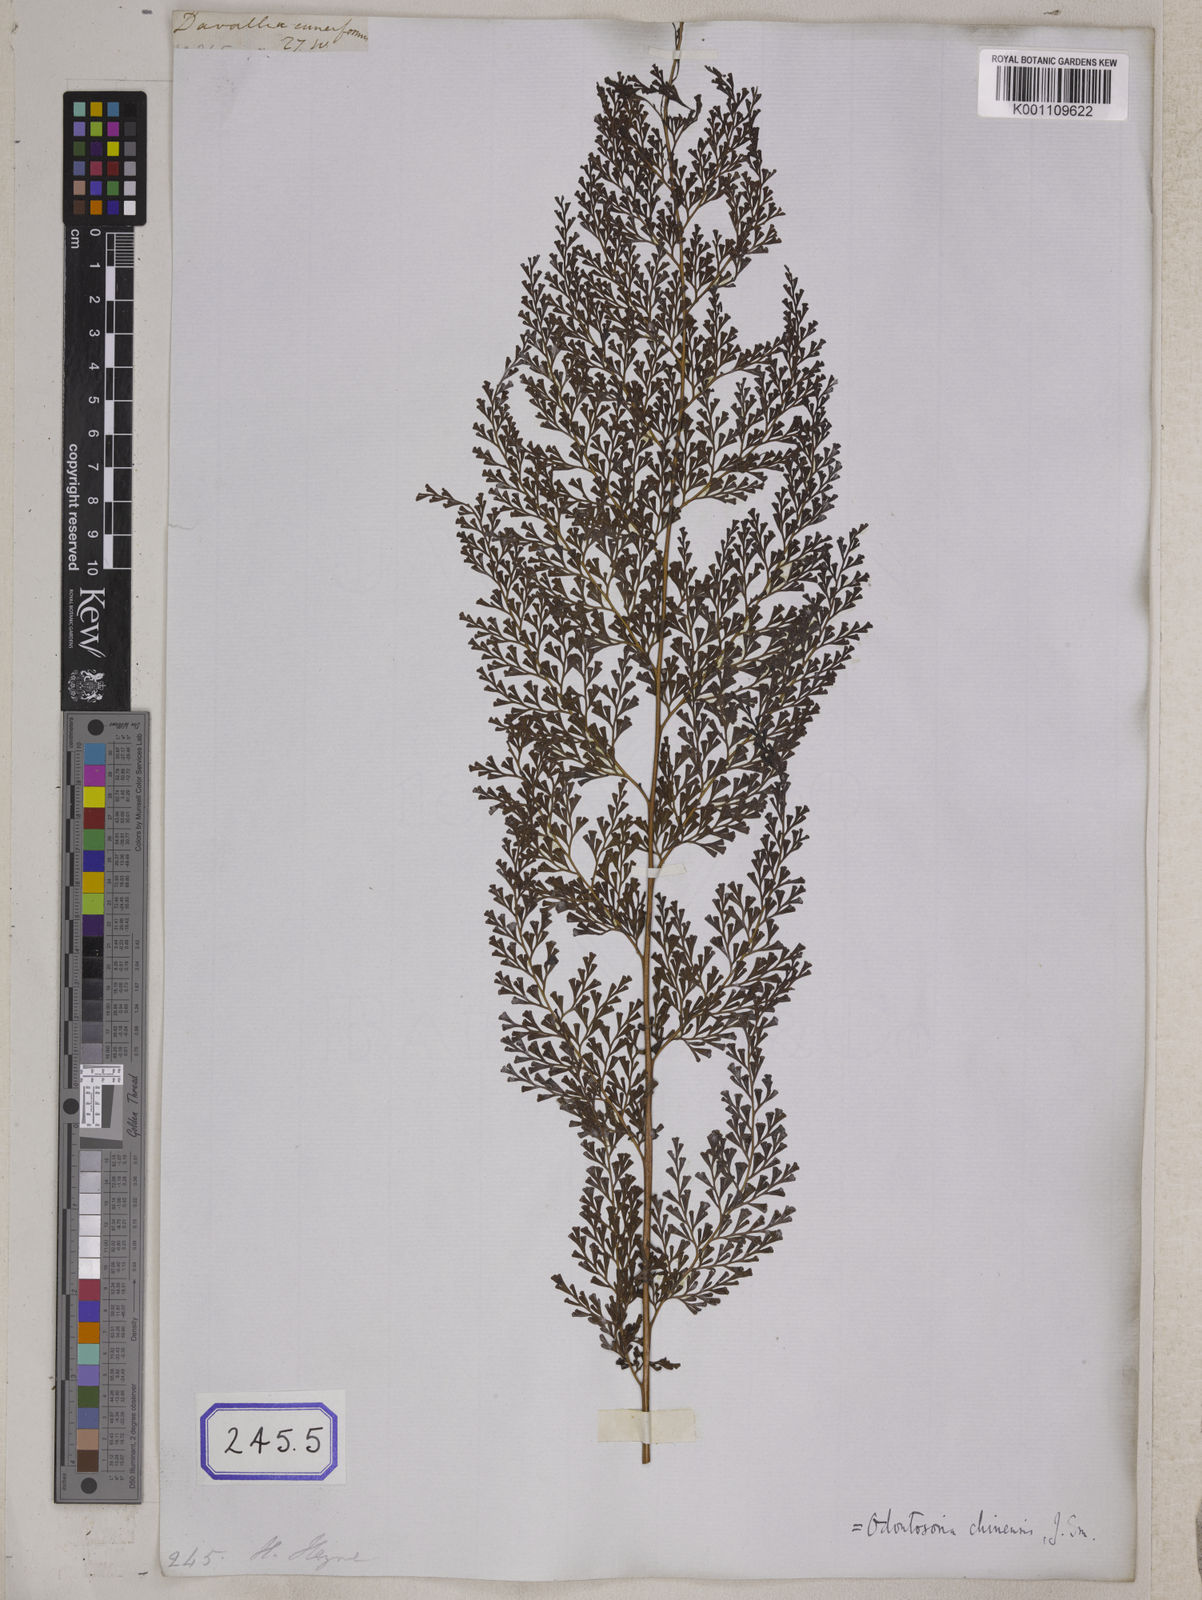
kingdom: Plantae
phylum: Tracheophyta
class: Polypodiopsida
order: Polypodiales
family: Lindsaeaceae
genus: Odontosoria
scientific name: Odontosoria chinensis
